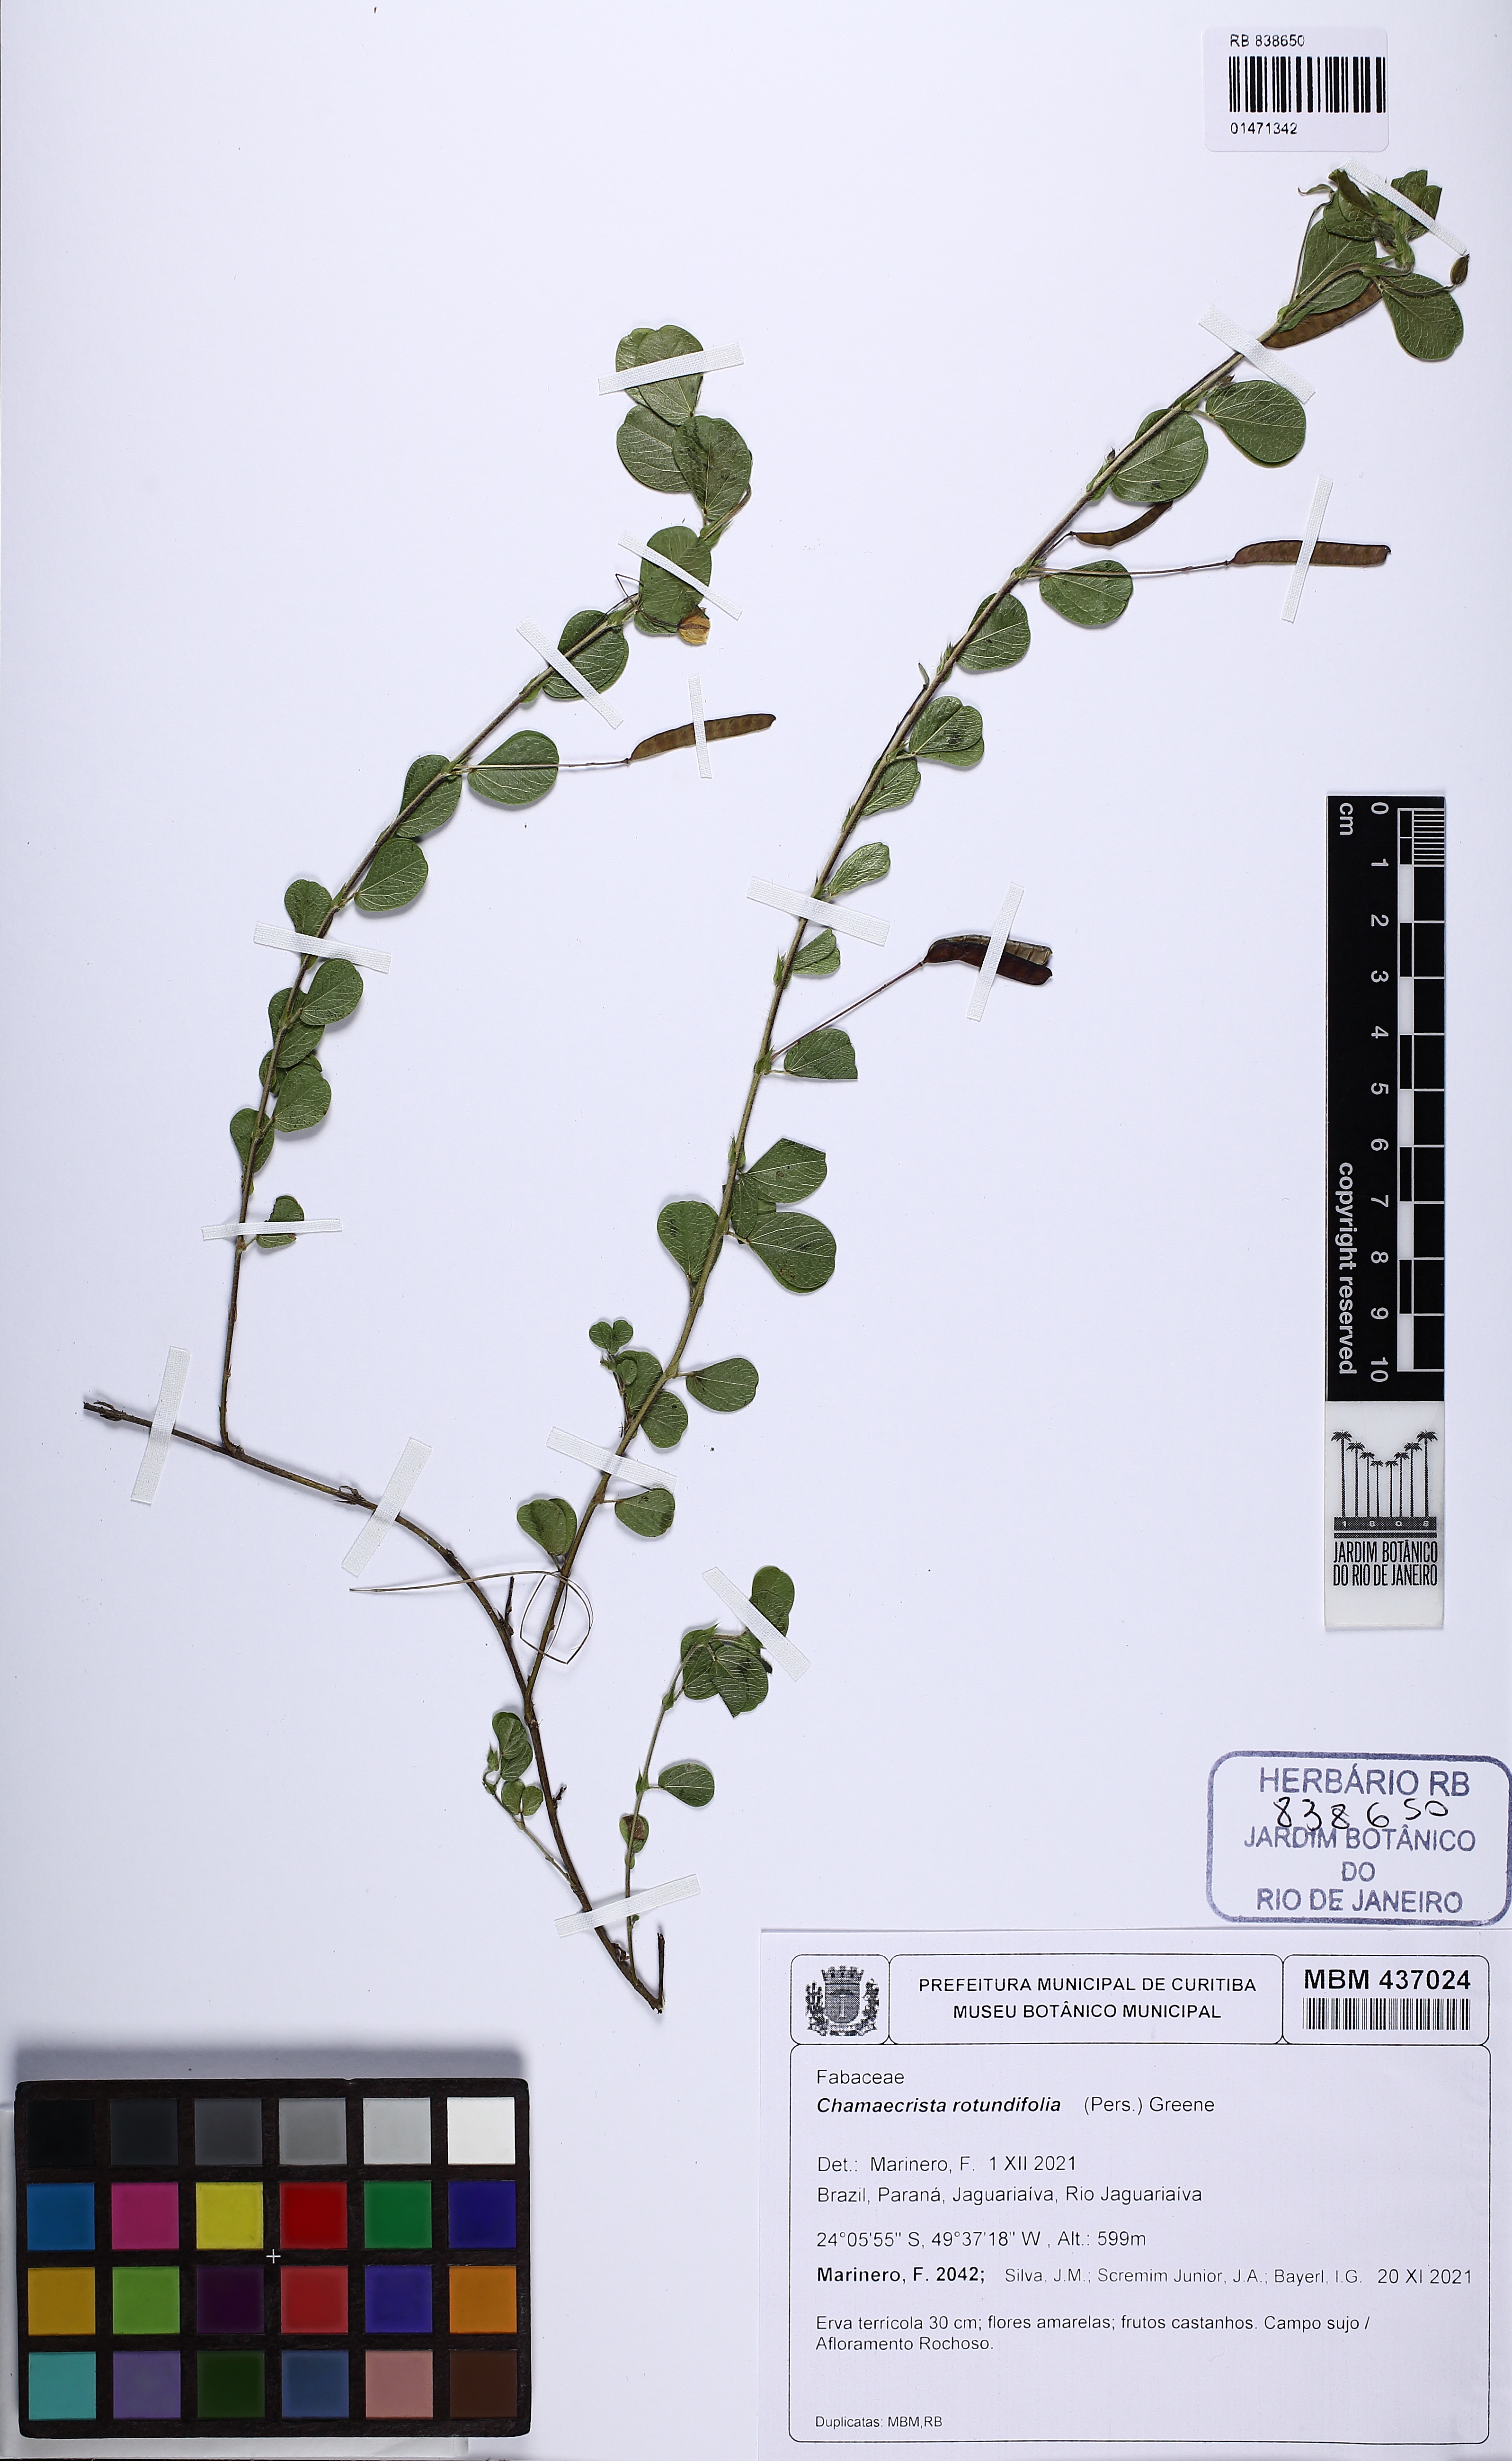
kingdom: Plantae
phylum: Tracheophyta
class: Magnoliopsida
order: Fabales
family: Fabaceae
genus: Chamaecrista
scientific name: Chamaecrista rotundifolia
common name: Round-leaf cassia
